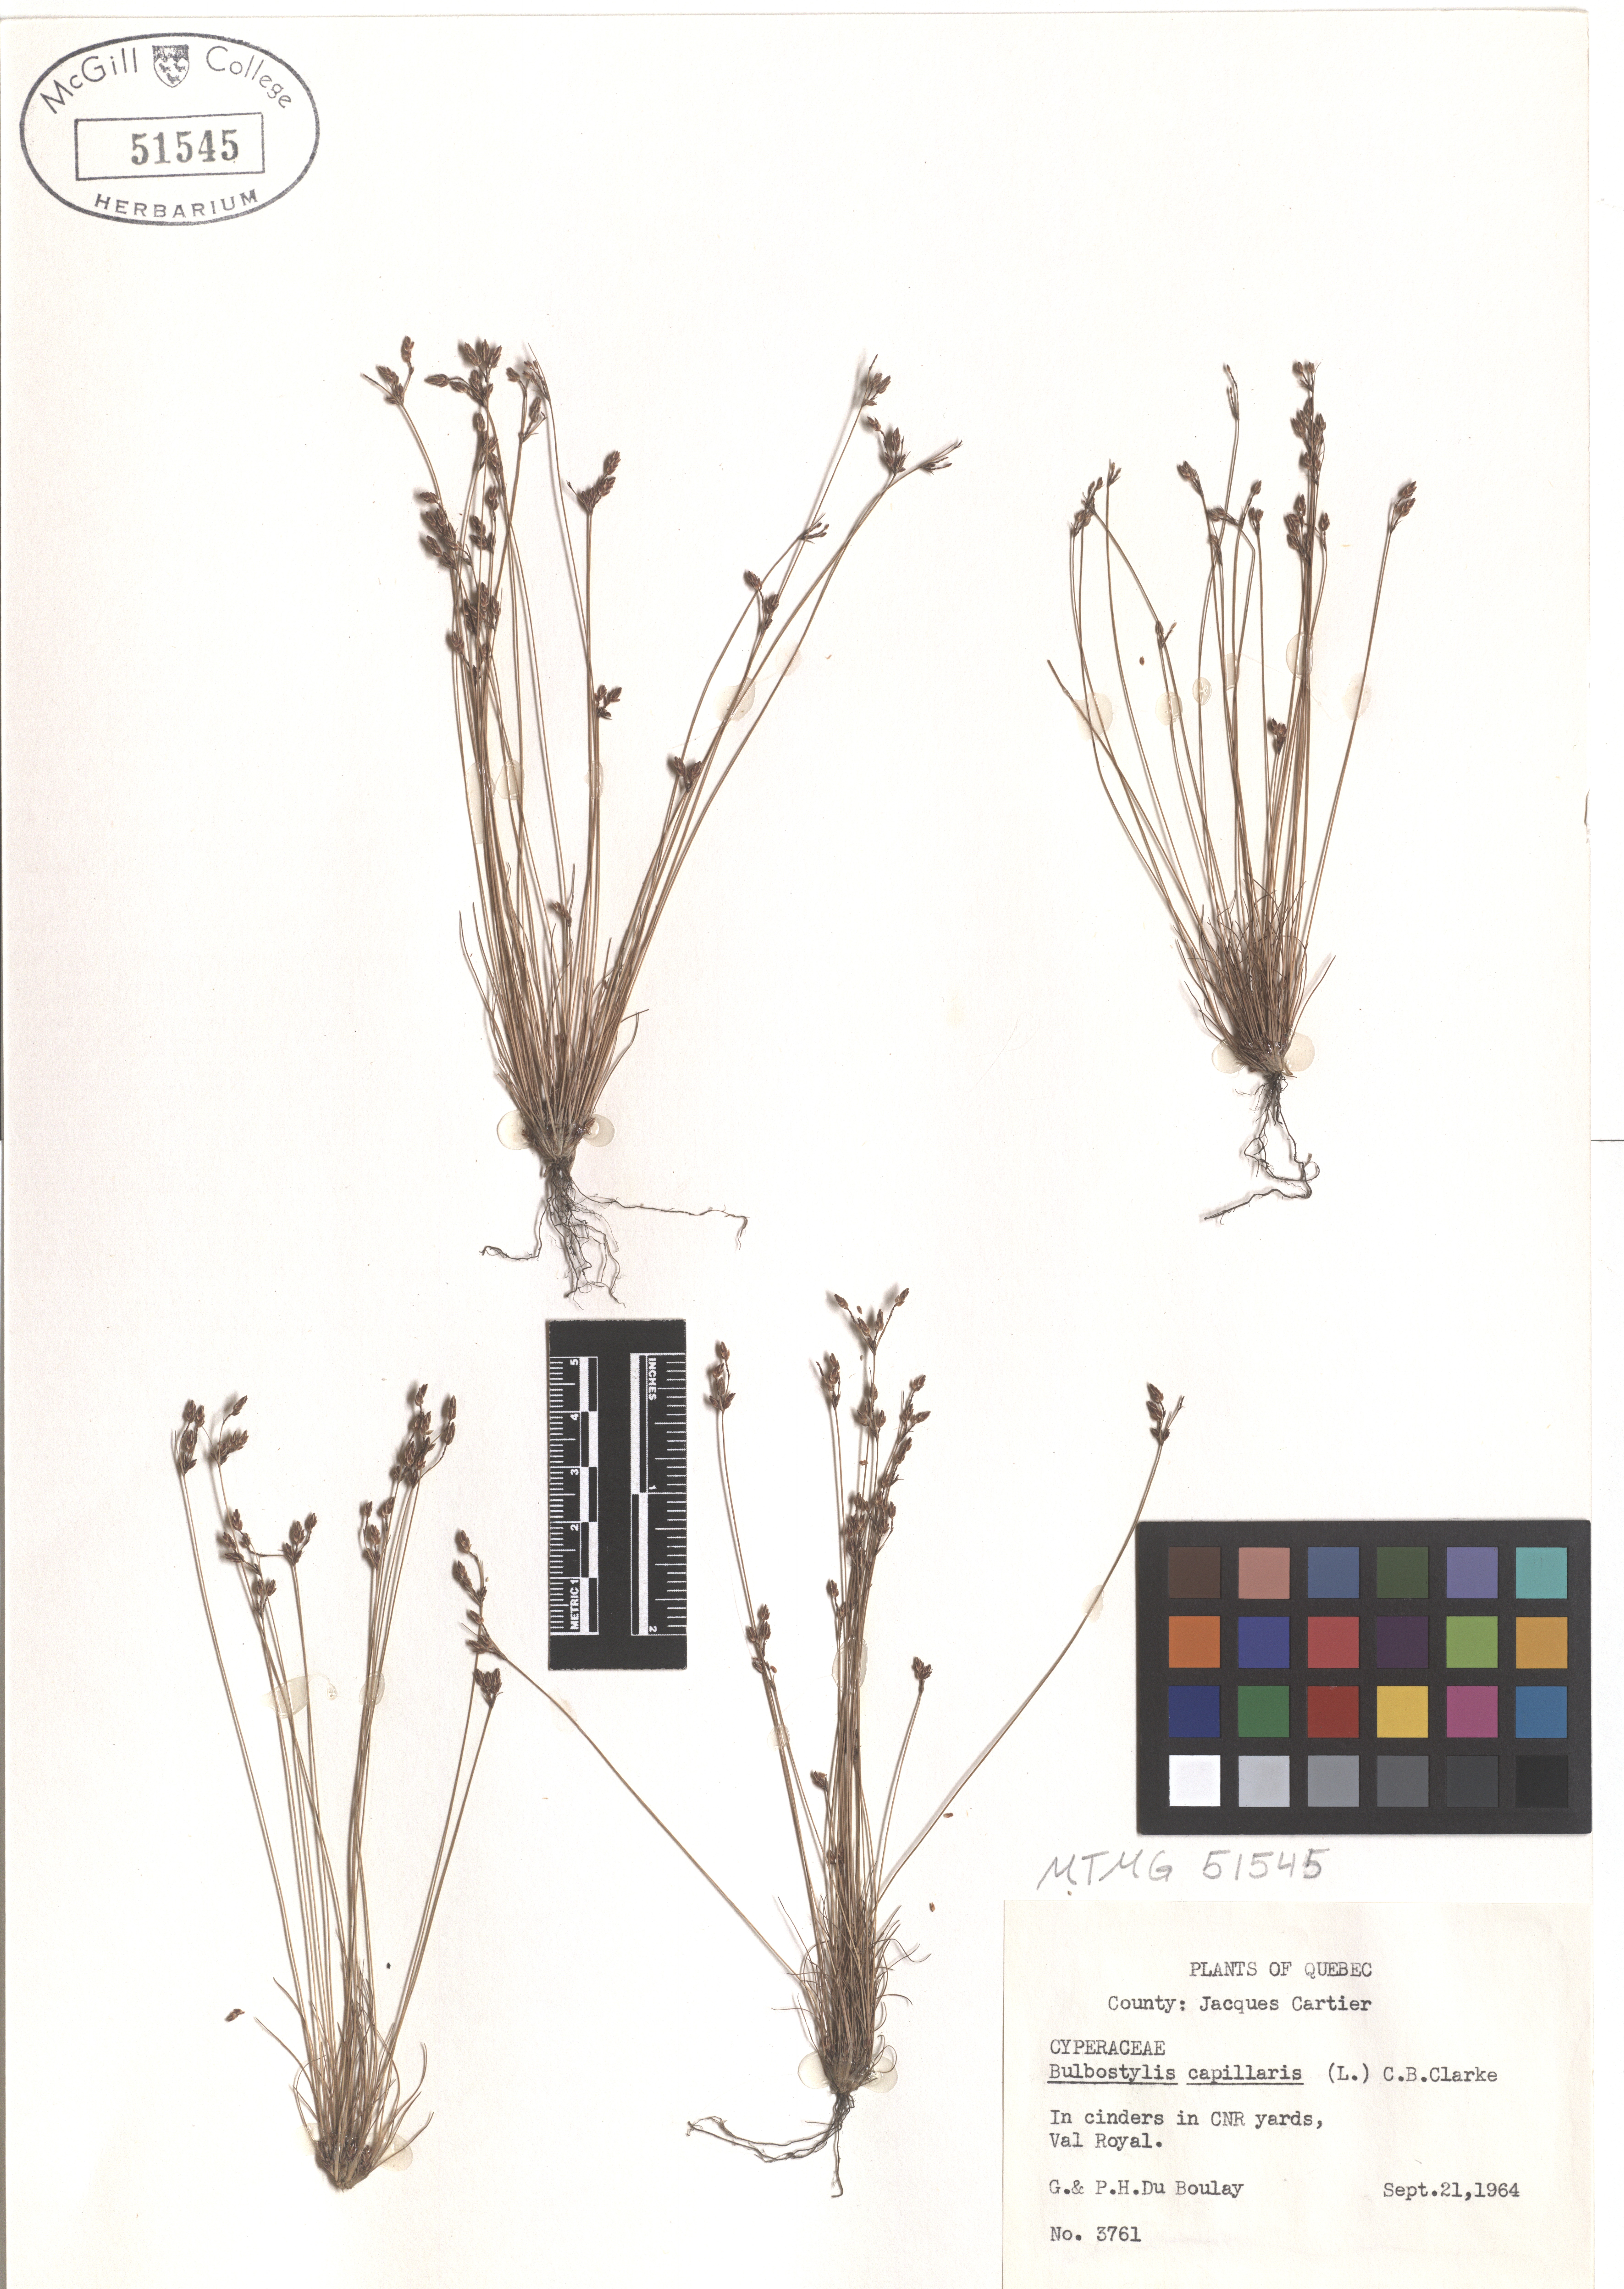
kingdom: Plantae
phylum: Tracheophyta
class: Liliopsida
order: Poales
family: Cyperaceae
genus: Bulbostylis
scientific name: Bulbostylis capillaris
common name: Densetuft hairsedge
